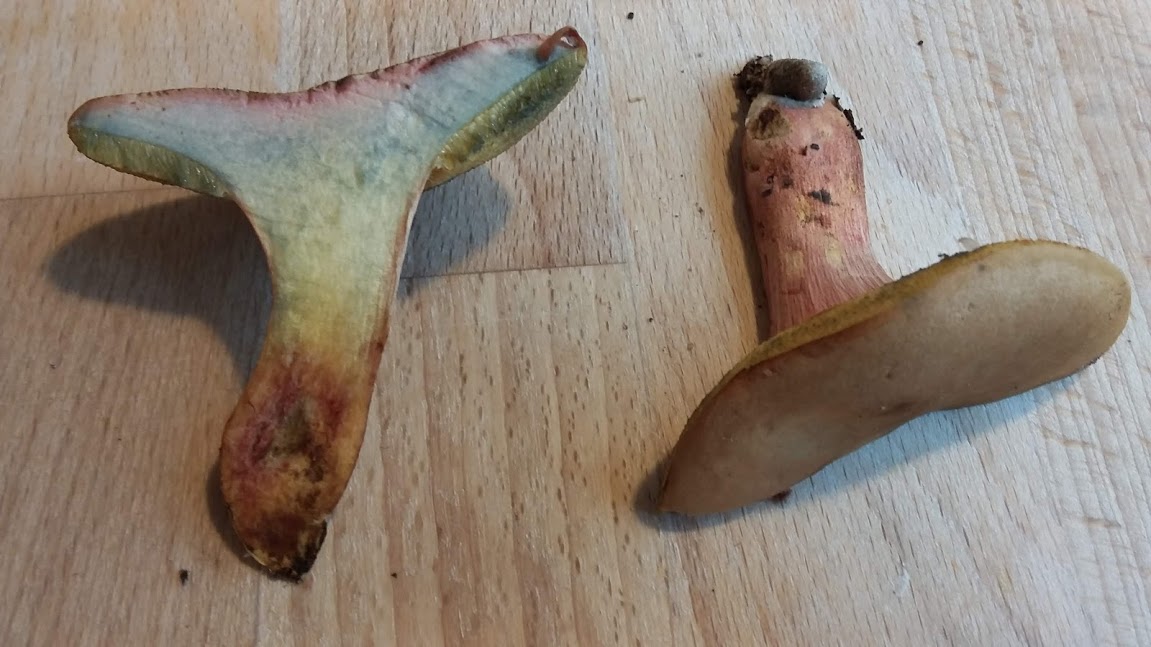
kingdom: Fungi
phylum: Basidiomycota
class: Agaricomycetes
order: Boletales
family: Boletaceae
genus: Hortiboletus
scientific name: Hortiboletus bubalinus
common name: aurora-rørhat
